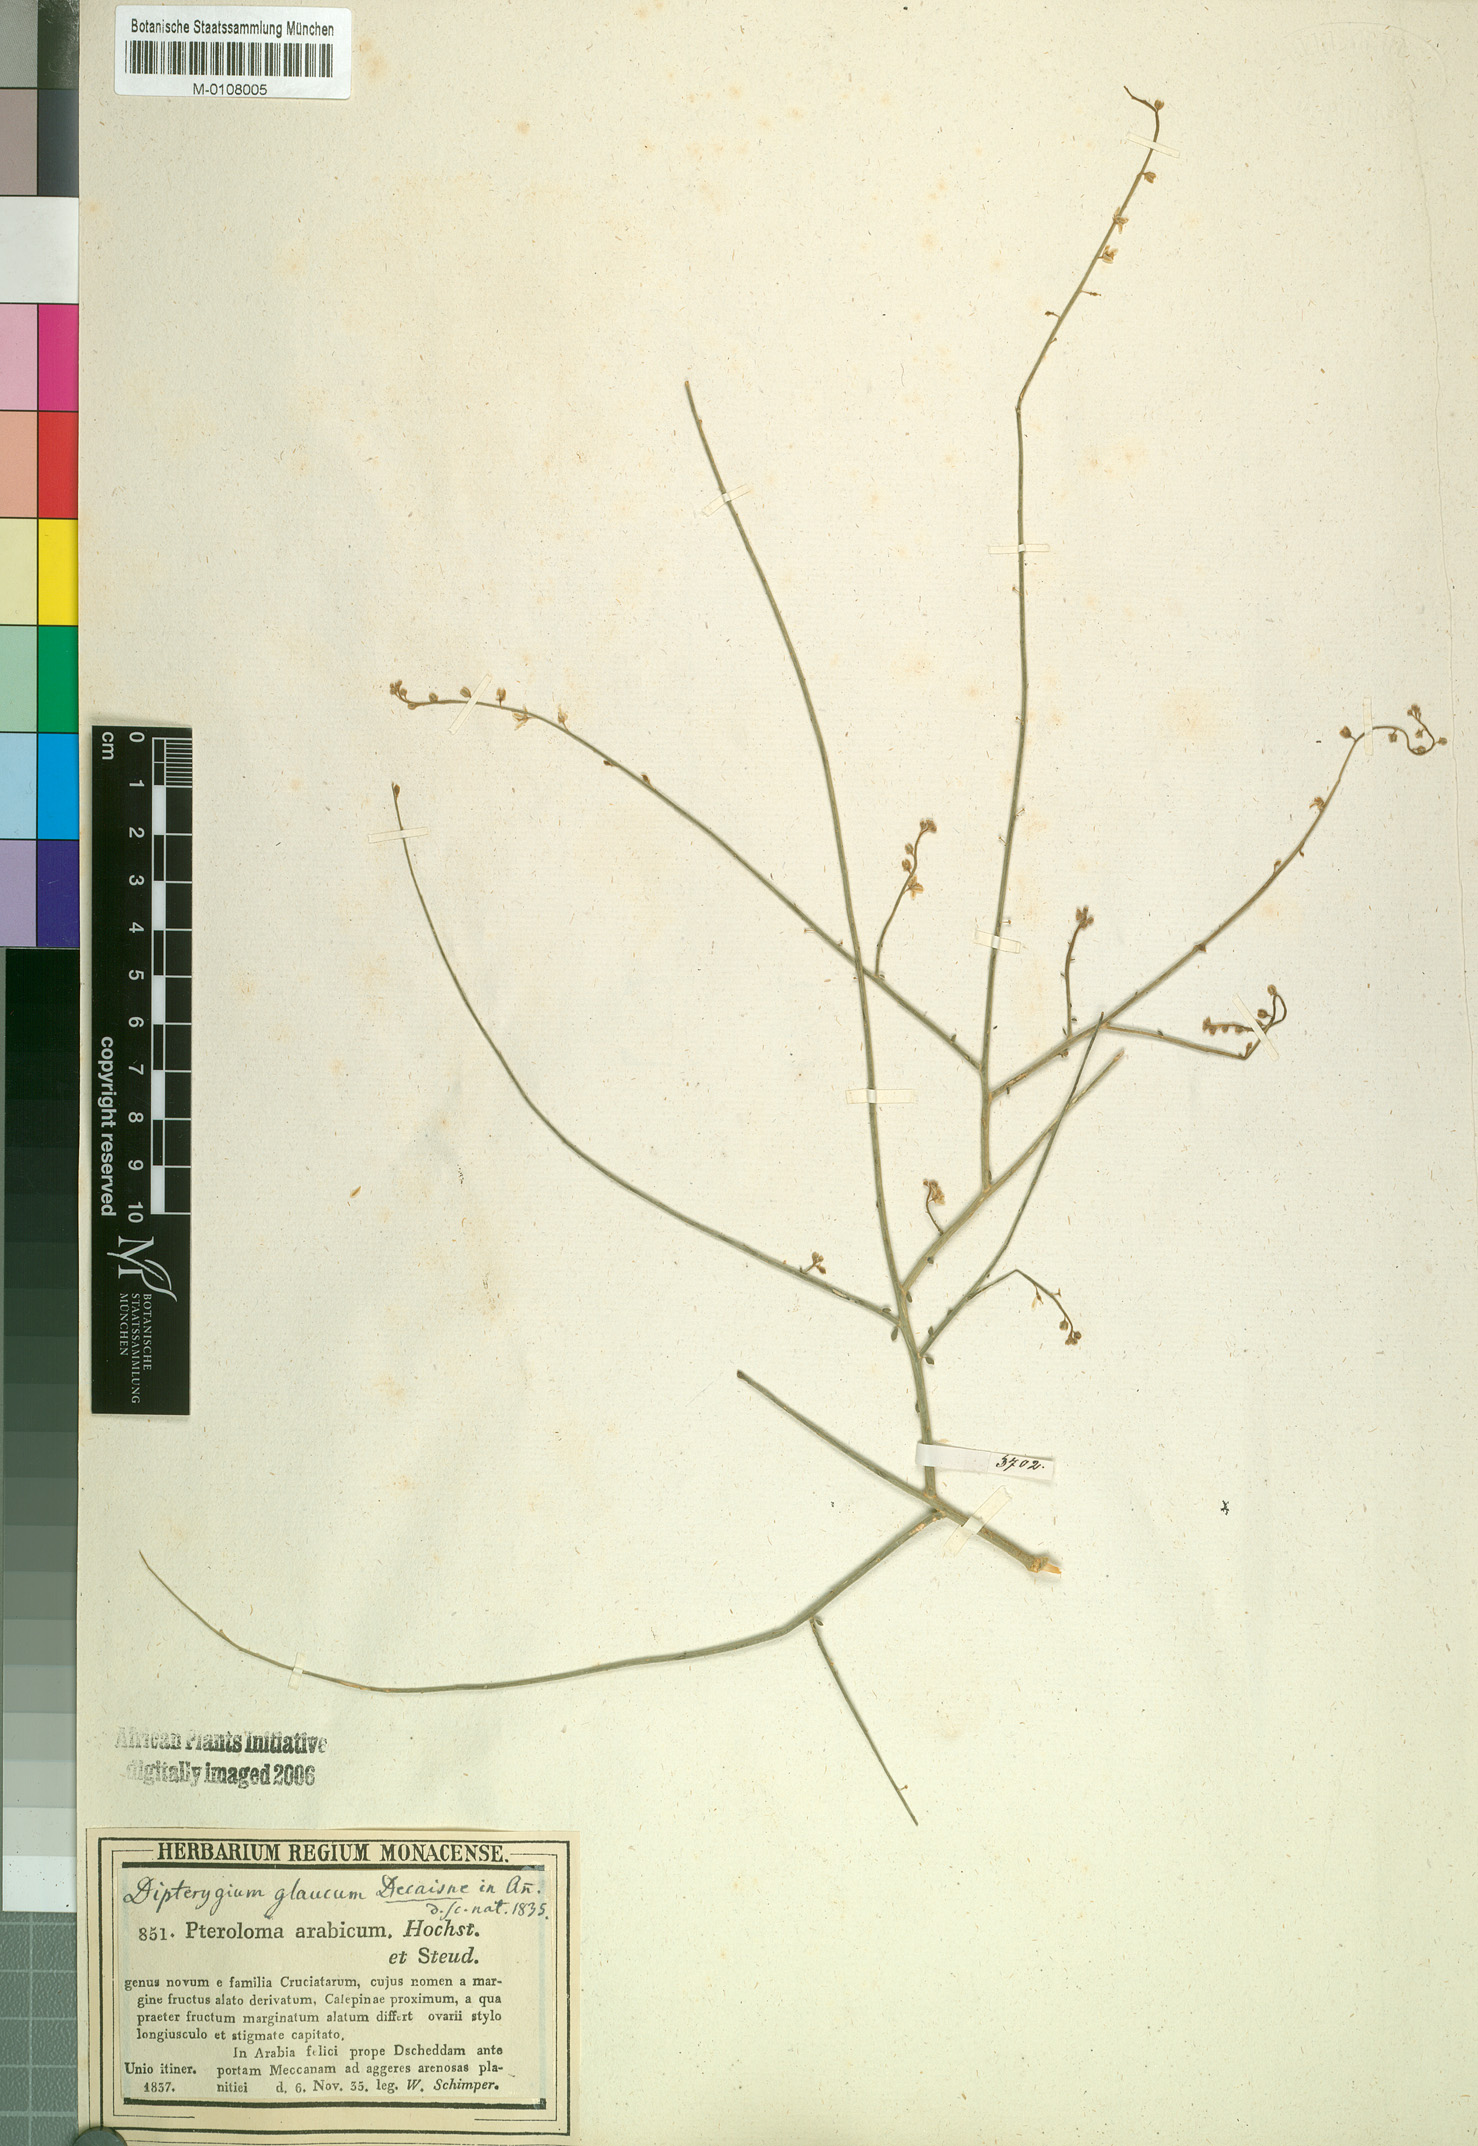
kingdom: Plantae
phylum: Tracheophyta
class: Magnoliopsida
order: Brassicales
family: Cleomaceae
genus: Dipterygium
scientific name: Dipterygium glaucum
